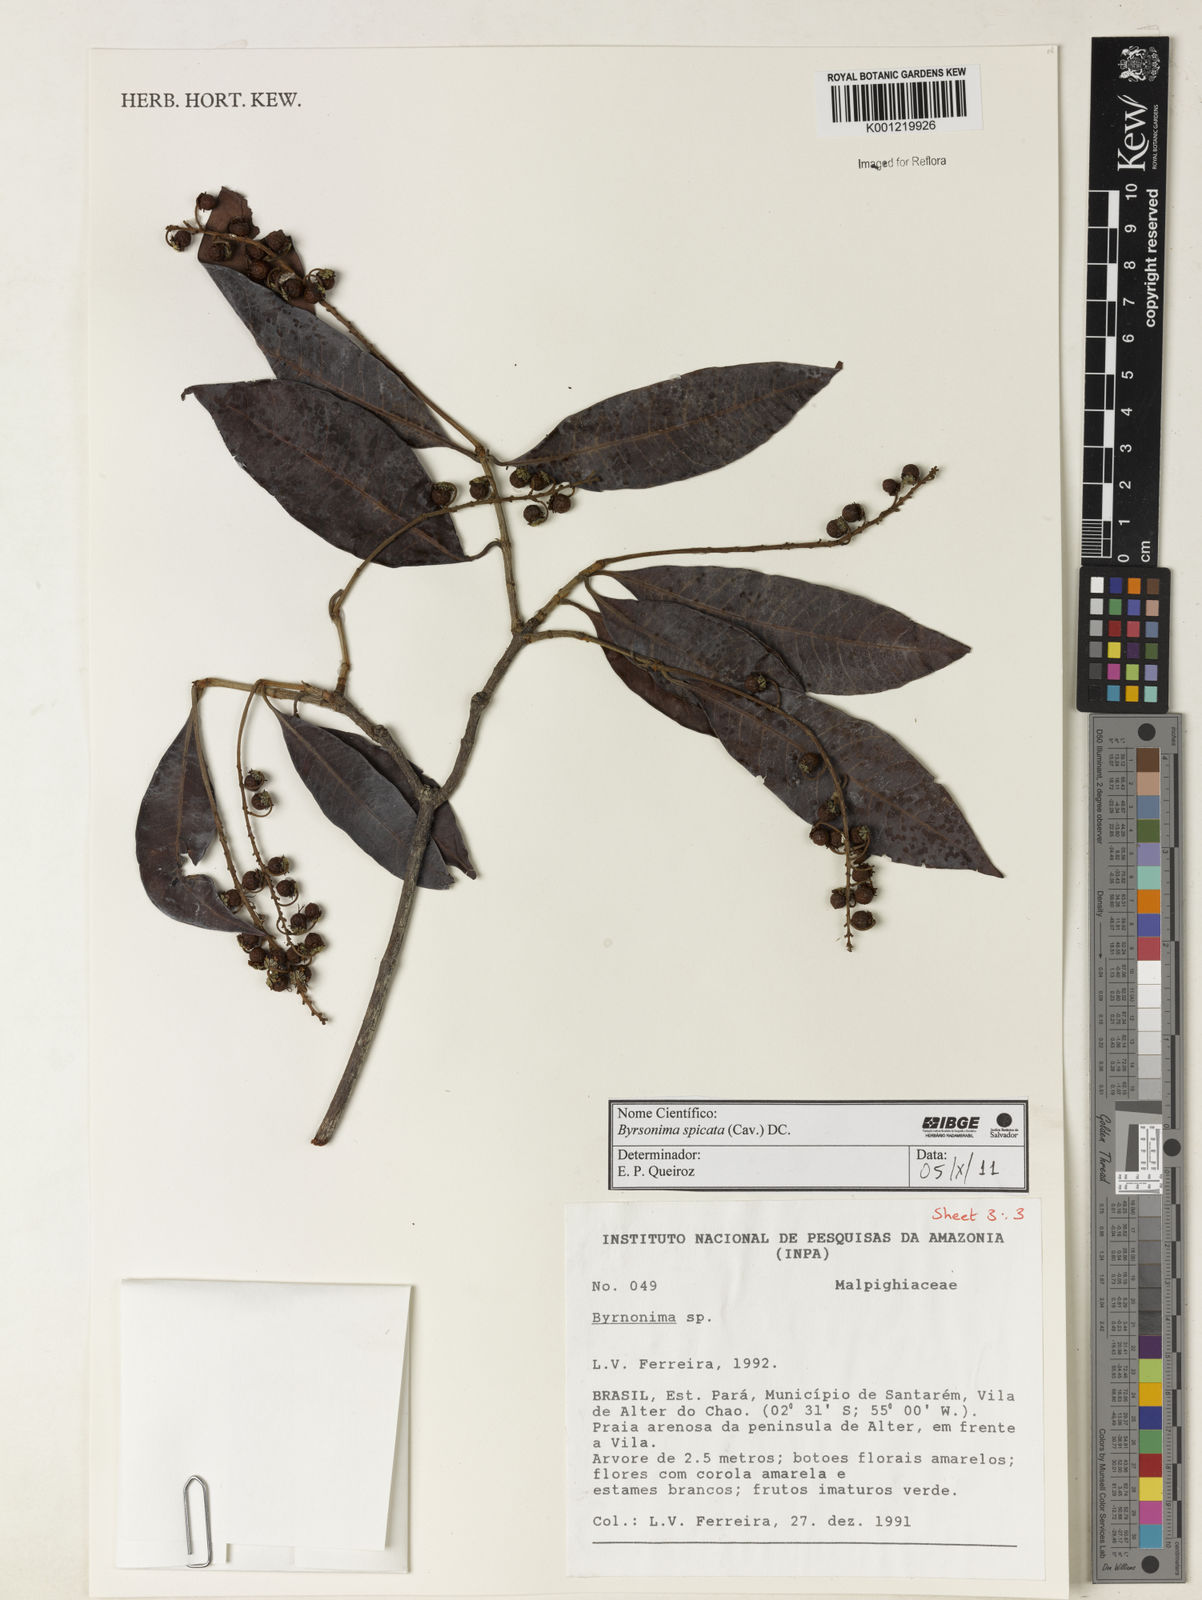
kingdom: Plantae
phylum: Tracheophyta
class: Magnoliopsida
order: Malpighiales
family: Malpighiaceae
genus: Byrsonima
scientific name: Byrsonima
